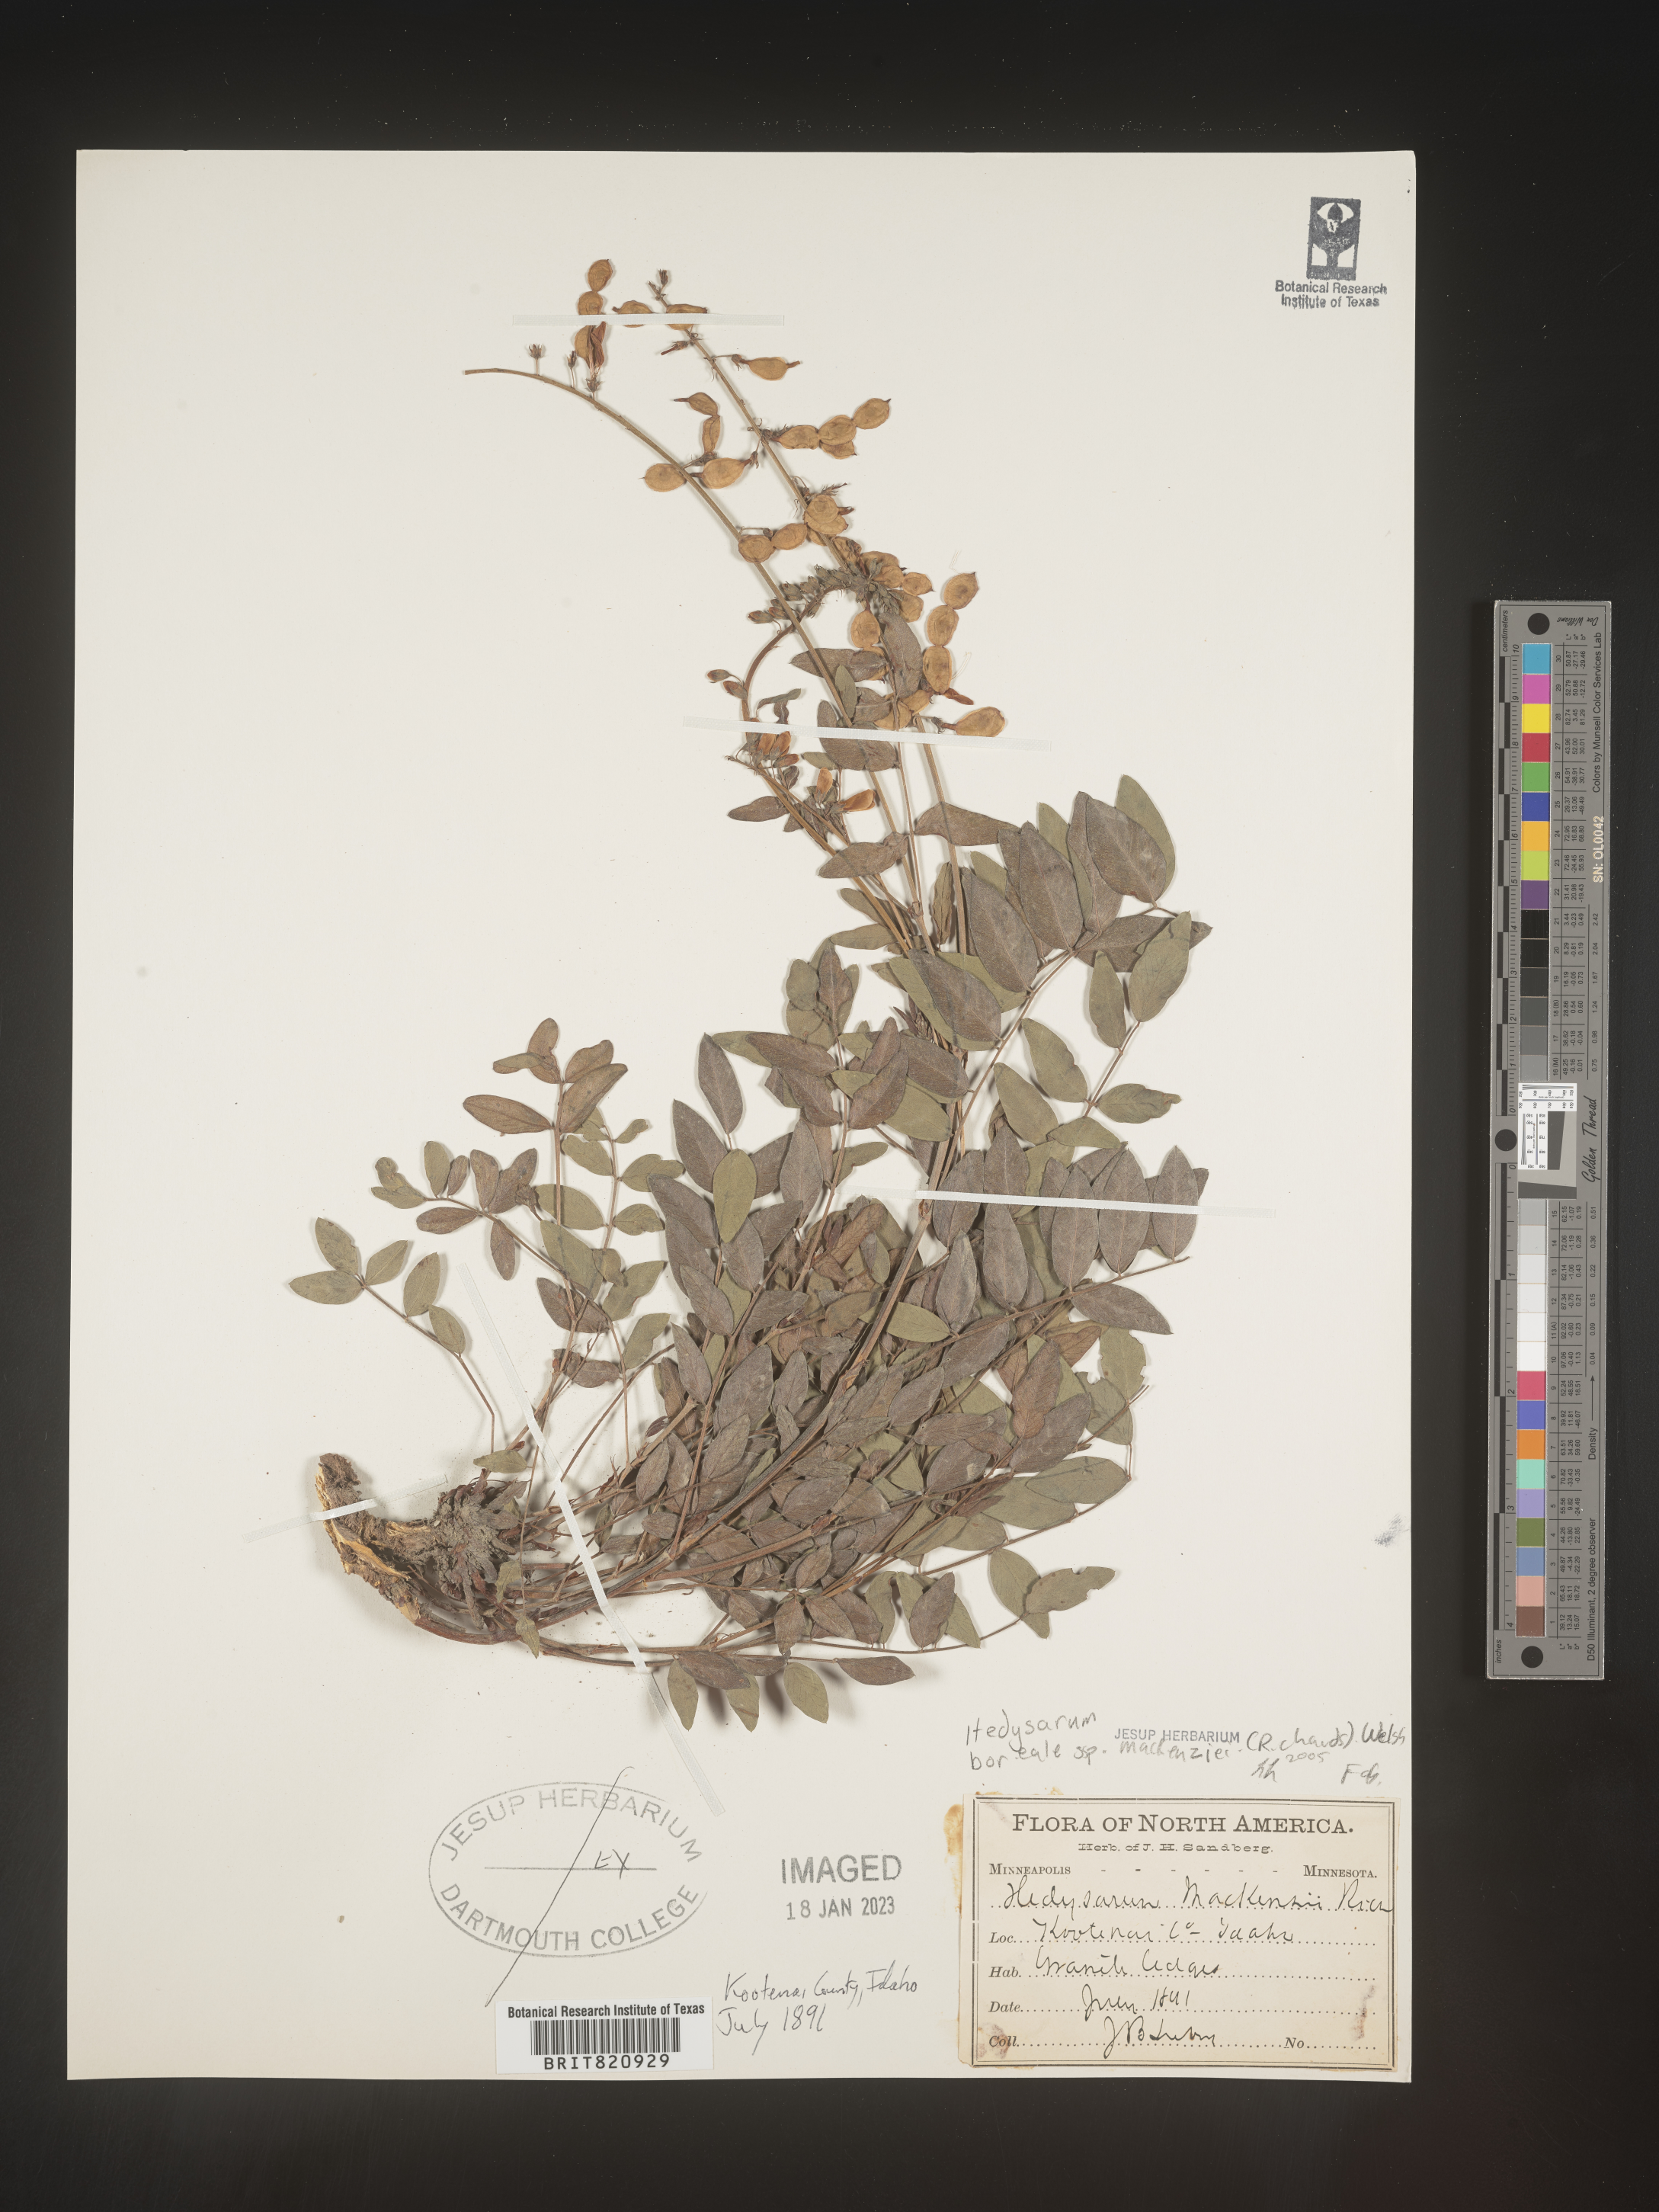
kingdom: Plantae
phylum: Tracheophyta
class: Magnoliopsida
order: Fabales
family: Fabaceae
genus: Hedysarum
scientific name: Hedysarum boreale
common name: Northern sweet-vetch
